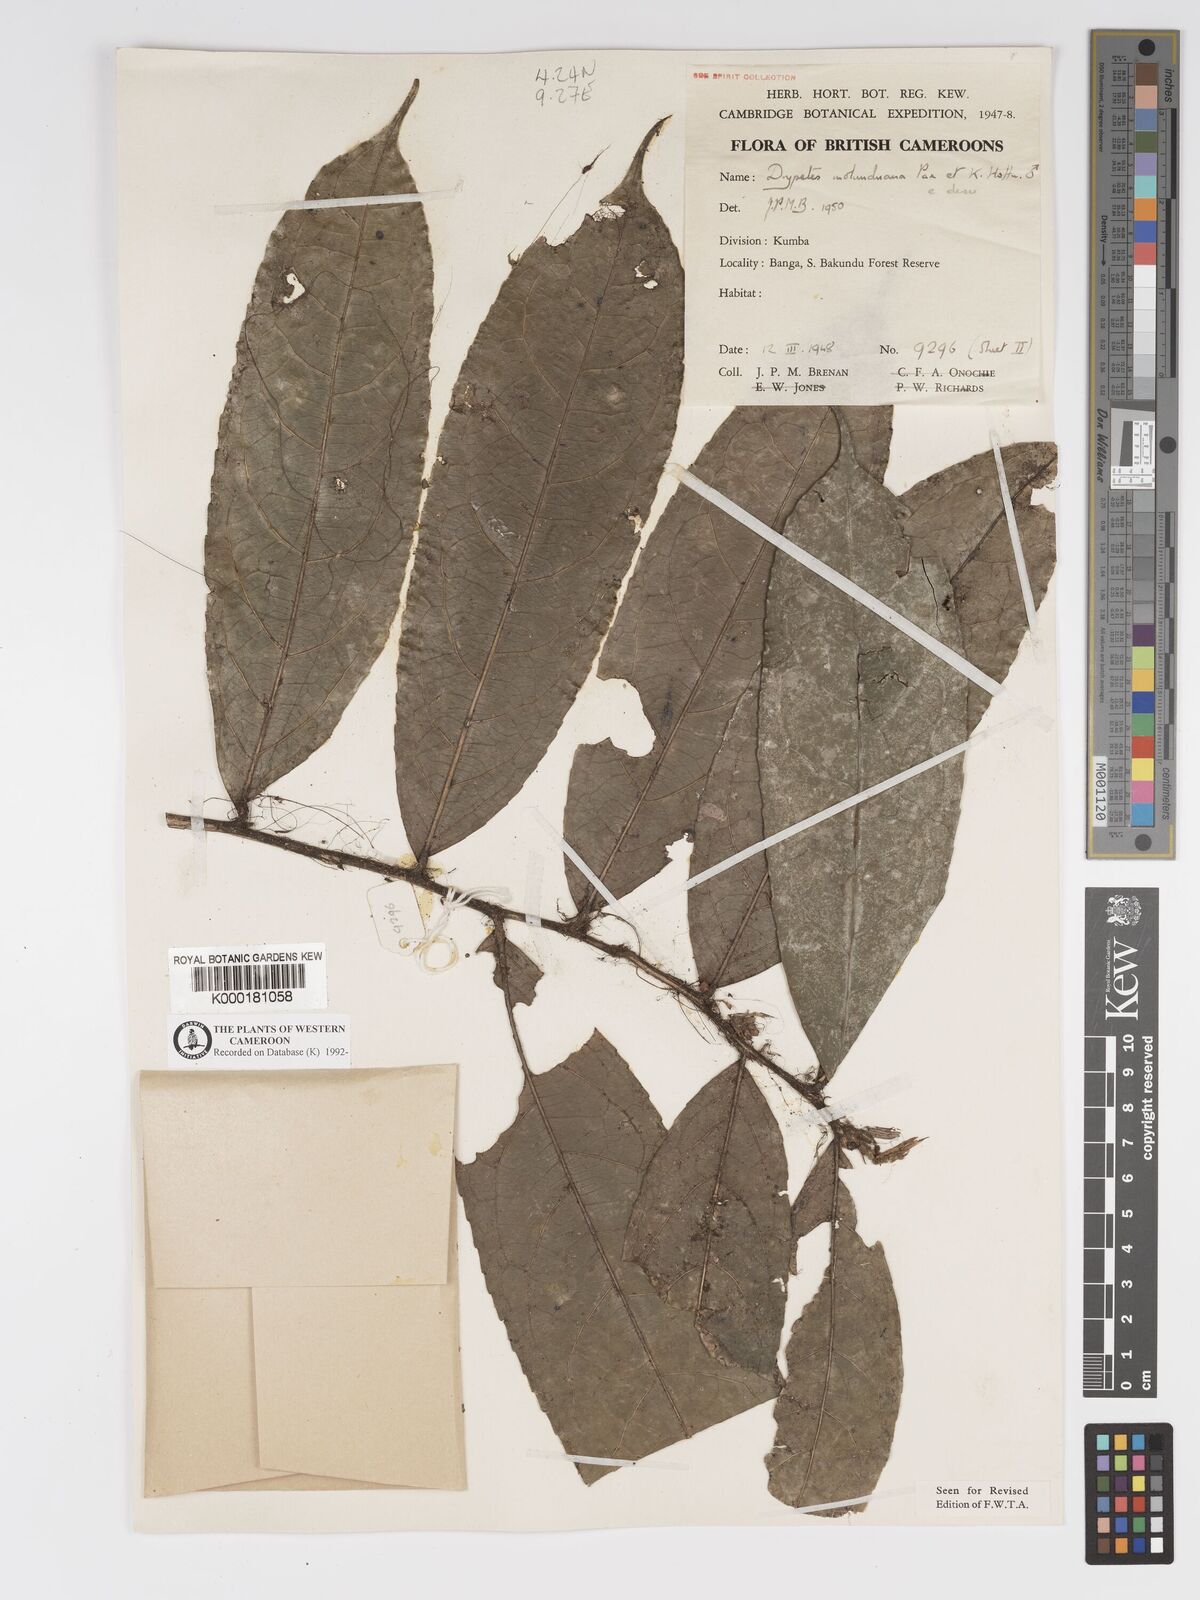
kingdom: Plantae
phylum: Tracheophyta
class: Magnoliopsida
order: Malpighiales
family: Putranjivaceae
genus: Drypetes
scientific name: Drypetes molunduana
